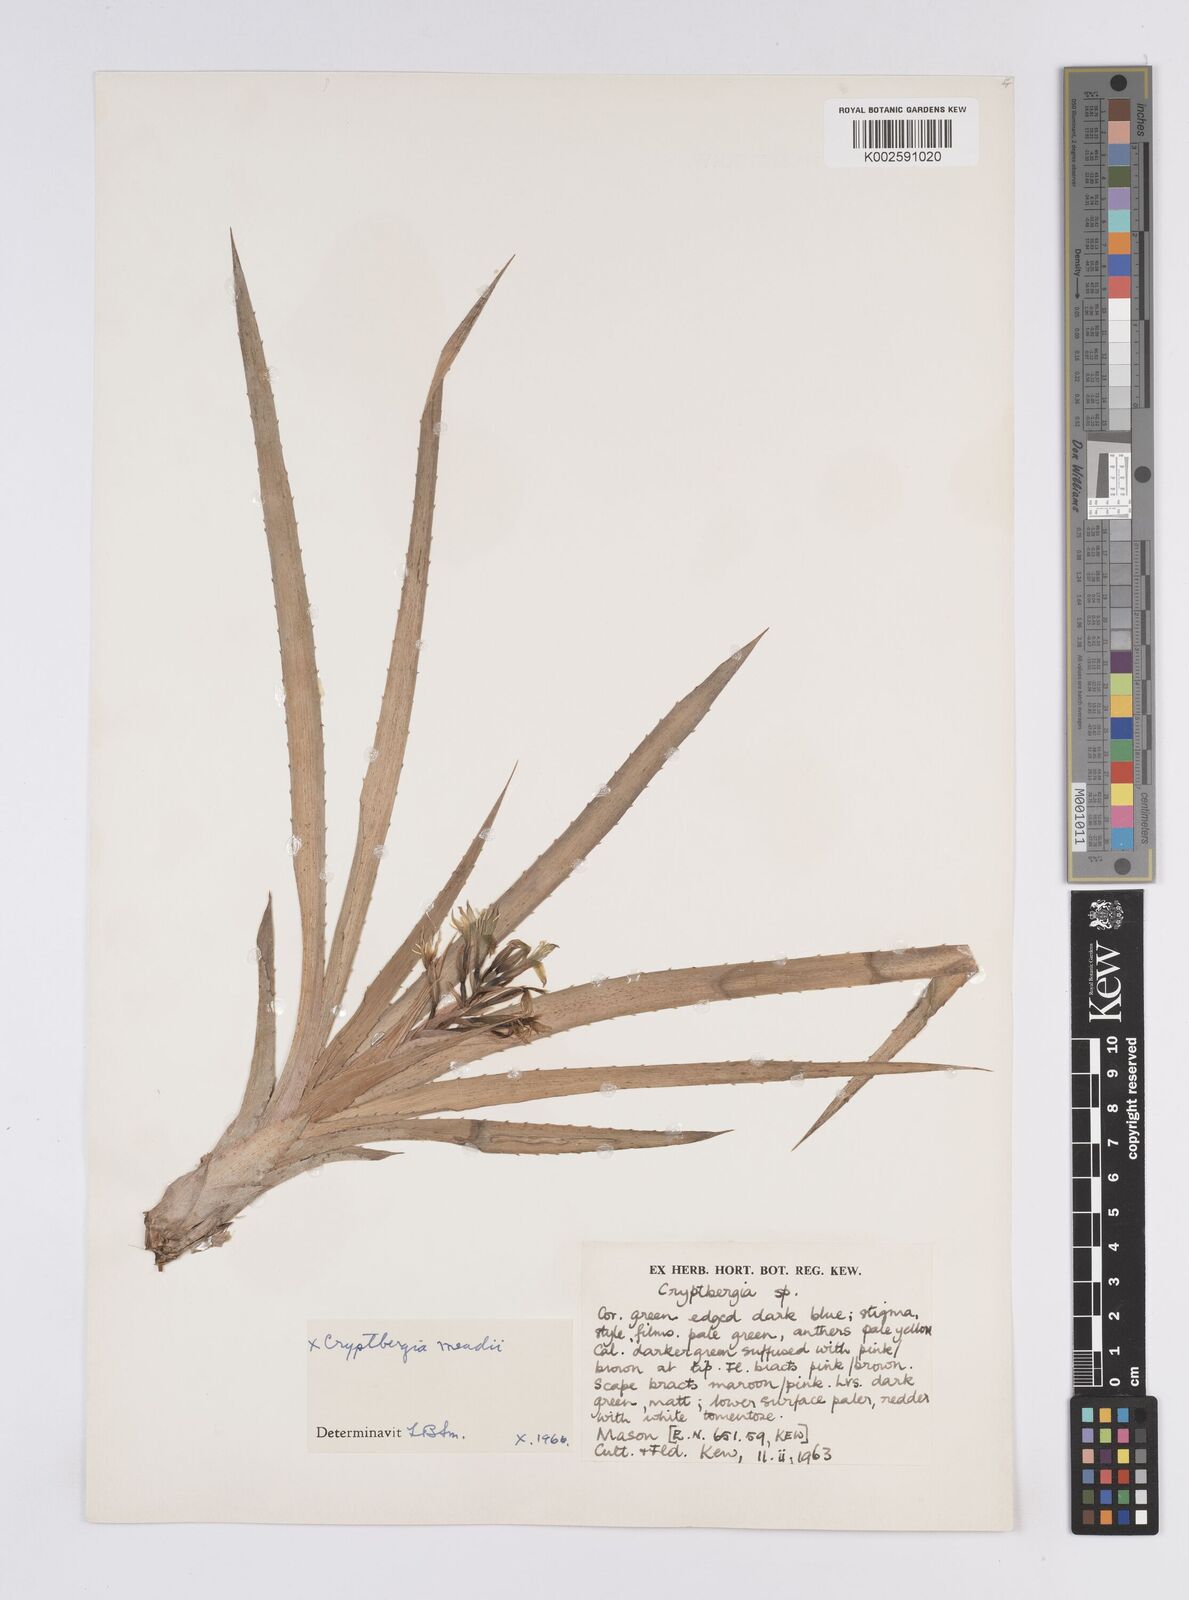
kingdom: Plantae
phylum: Tracheophyta
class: Liliopsida
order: Poales
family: Bromeliaceae
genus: Cryptanthus
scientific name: Cryptanthus
